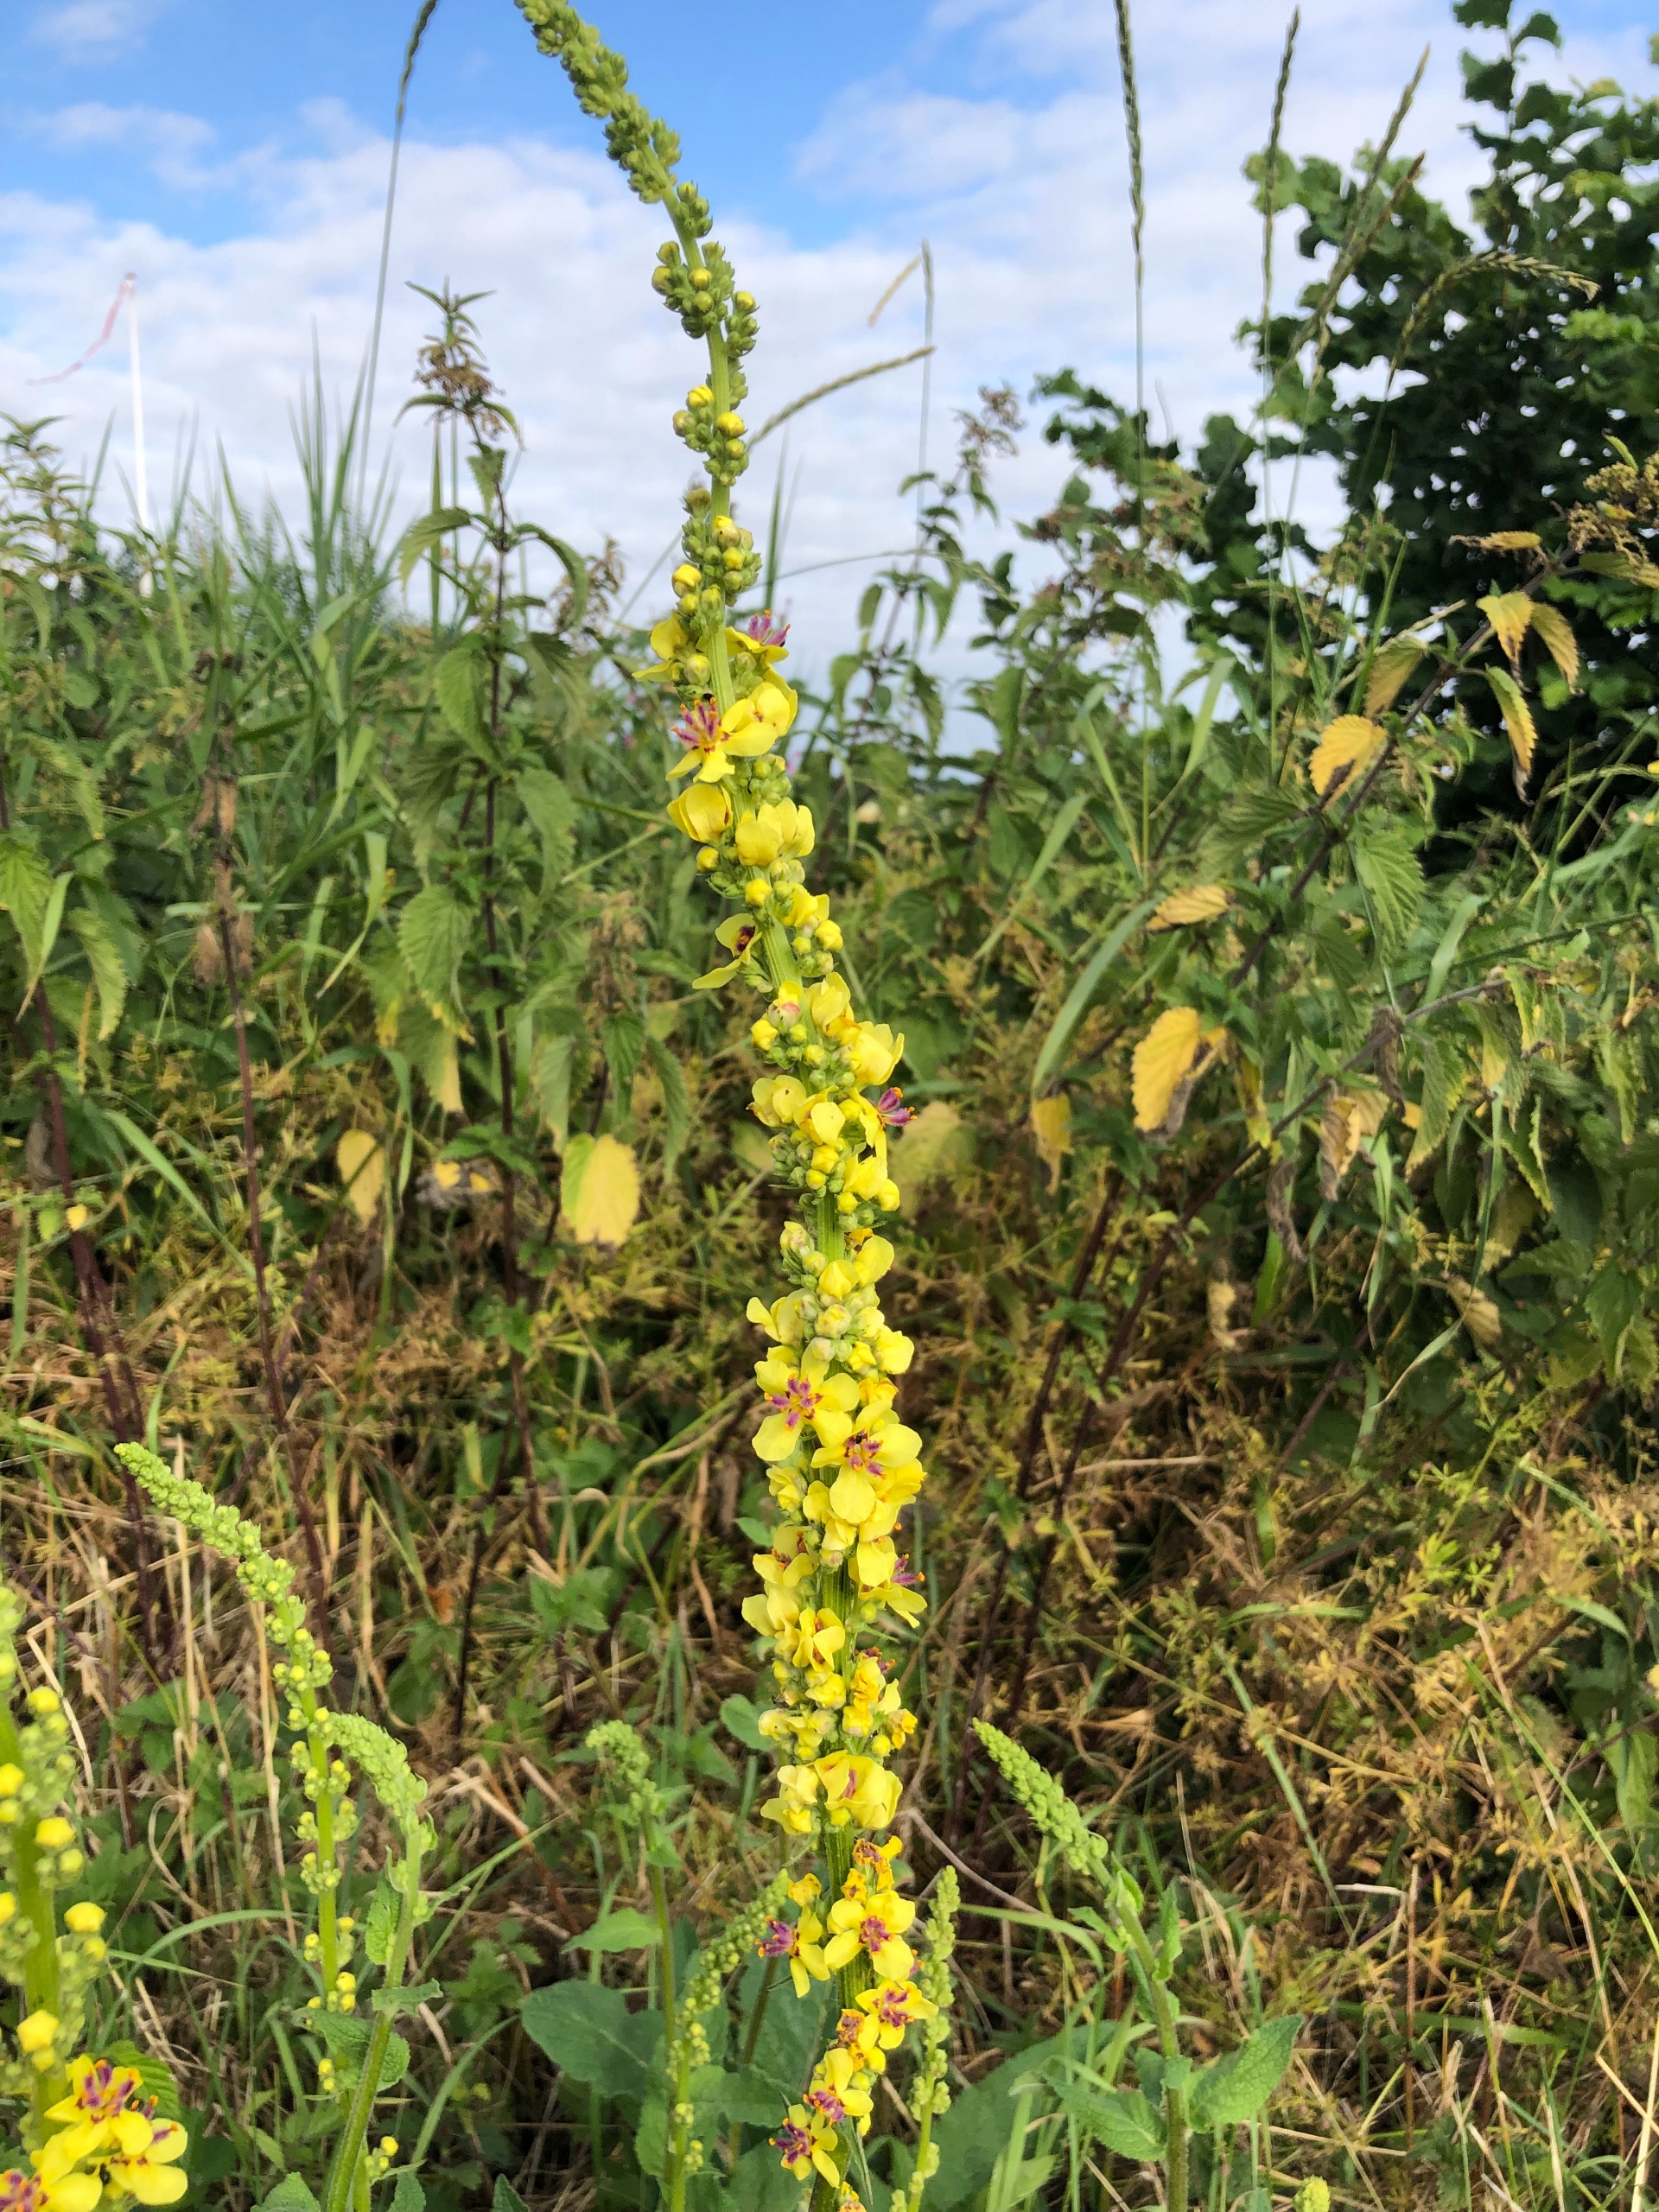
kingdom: Plantae
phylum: Tracheophyta
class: Magnoliopsida
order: Lamiales
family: Scrophulariaceae
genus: Verbascum
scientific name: Verbascum nigrum
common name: Mørk kongelys
